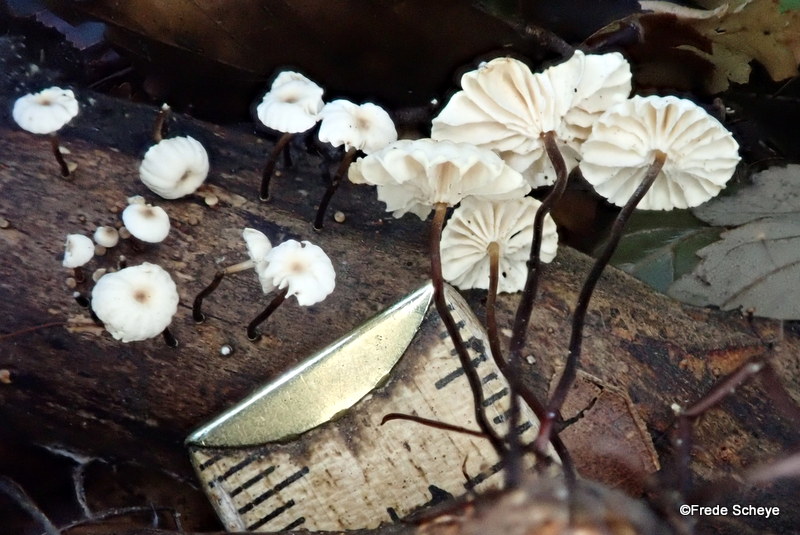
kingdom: Fungi
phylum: Basidiomycota
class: Agaricomycetes
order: Agaricales
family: Marasmiaceae
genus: Marasmius
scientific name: Marasmius rotula
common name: hjul-bruskhat
